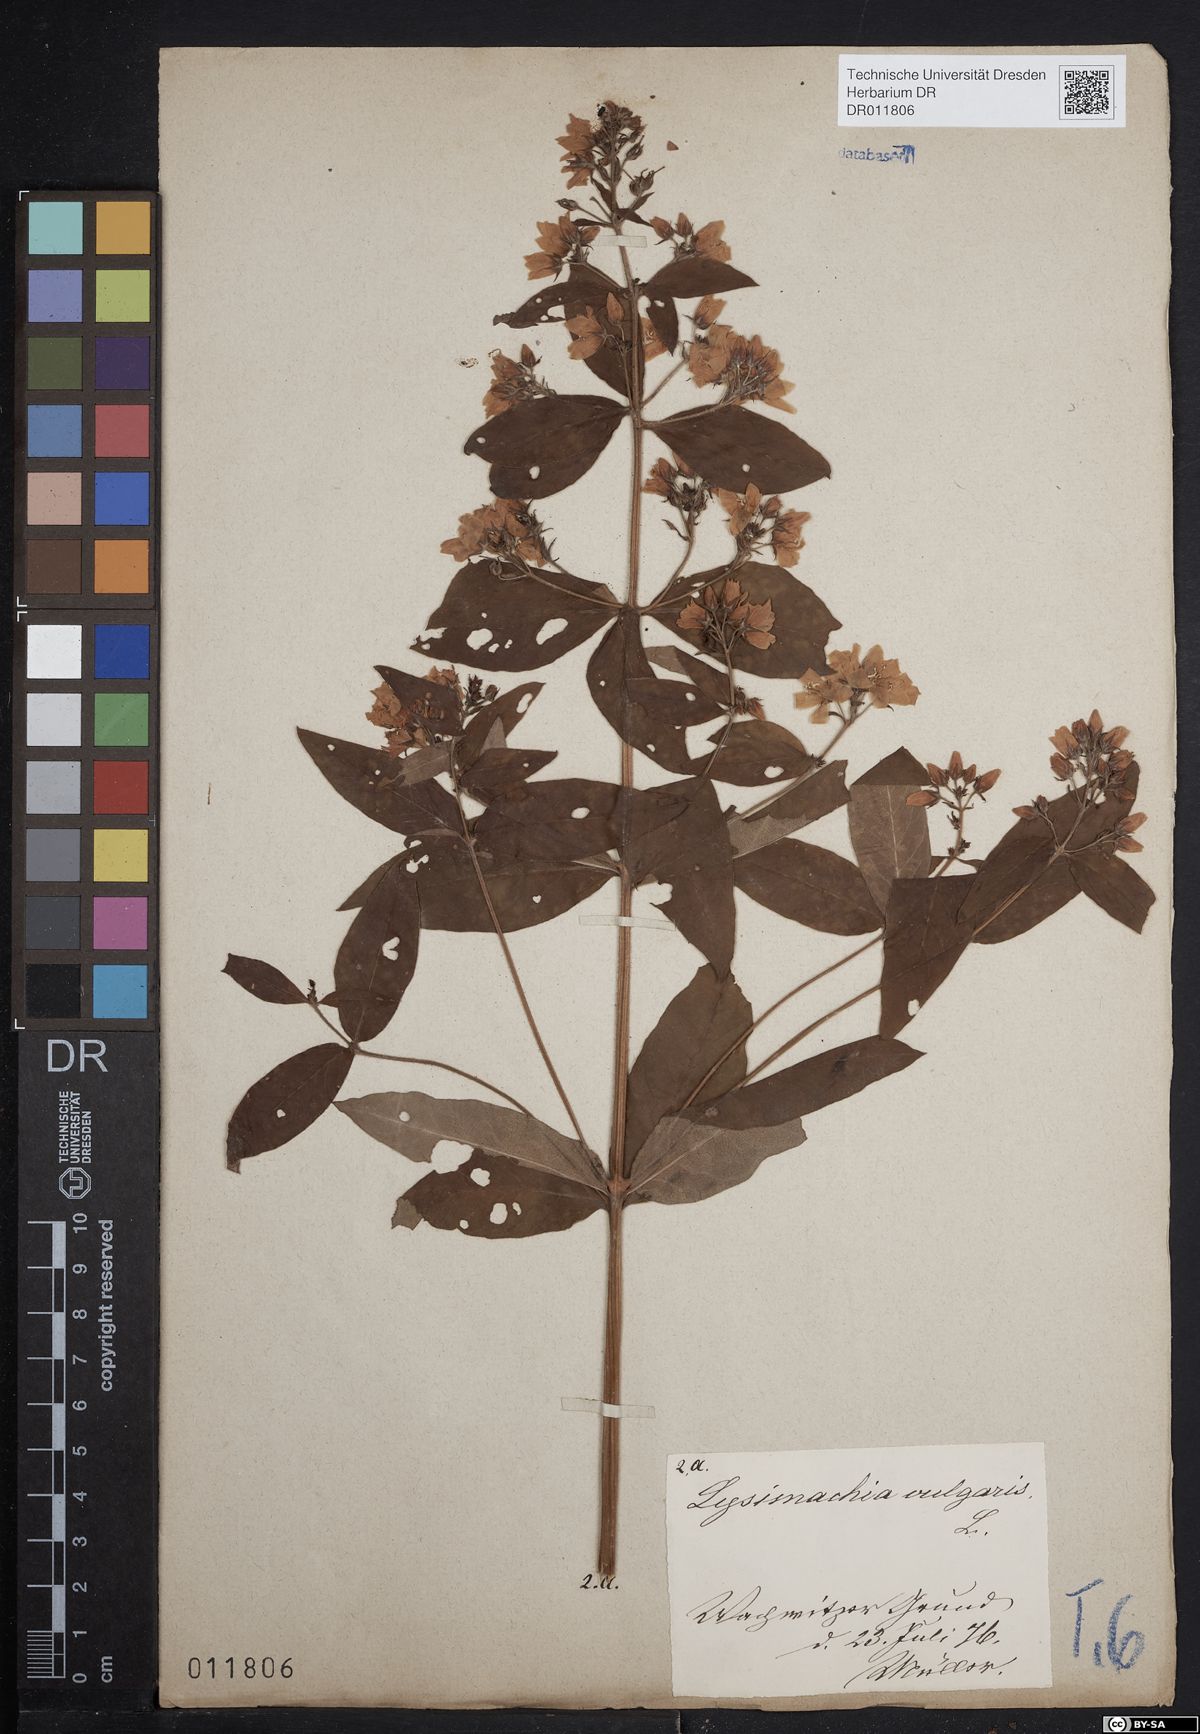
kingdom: Plantae
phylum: Tracheophyta
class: Magnoliopsida
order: Ericales
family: Primulaceae
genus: Lysimachia
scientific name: Lysimachia vulgaris
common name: Yellow loosestrife
